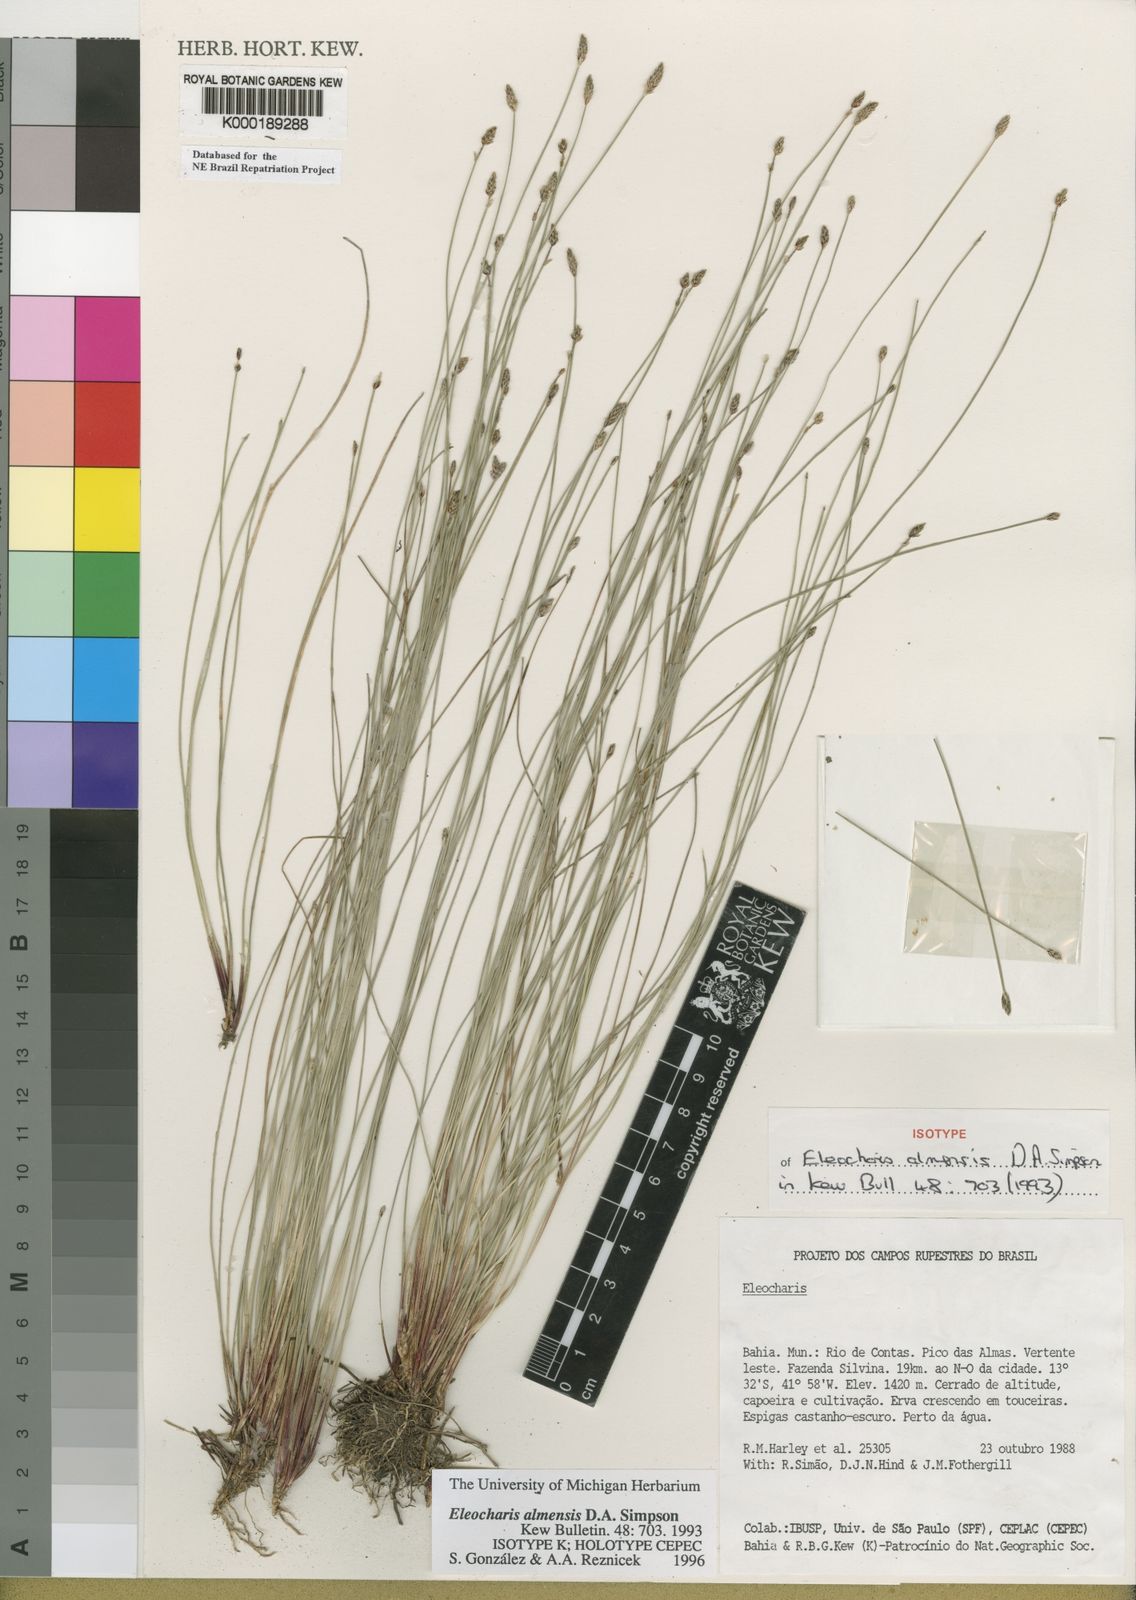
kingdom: Plantae
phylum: Tracheophyta
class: Liliopsida
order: Poales
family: Cyperaceae
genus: Eleocharis
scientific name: Eleocharis loefgreniana
